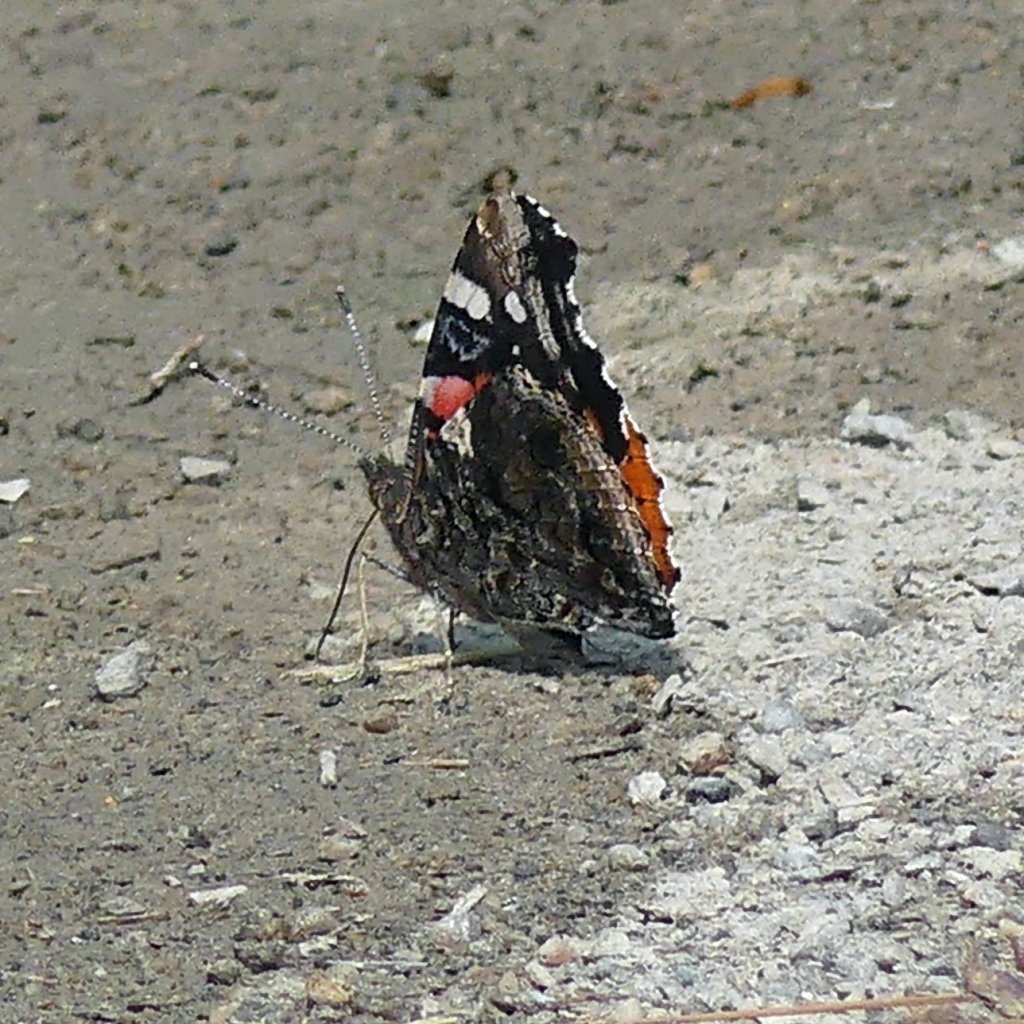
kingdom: Animalia
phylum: Arthropoda
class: Insecta
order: Lepidoptera
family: Nymphalidae
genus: Vanessa
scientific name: Vanessa atalanta
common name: Red Admiral
